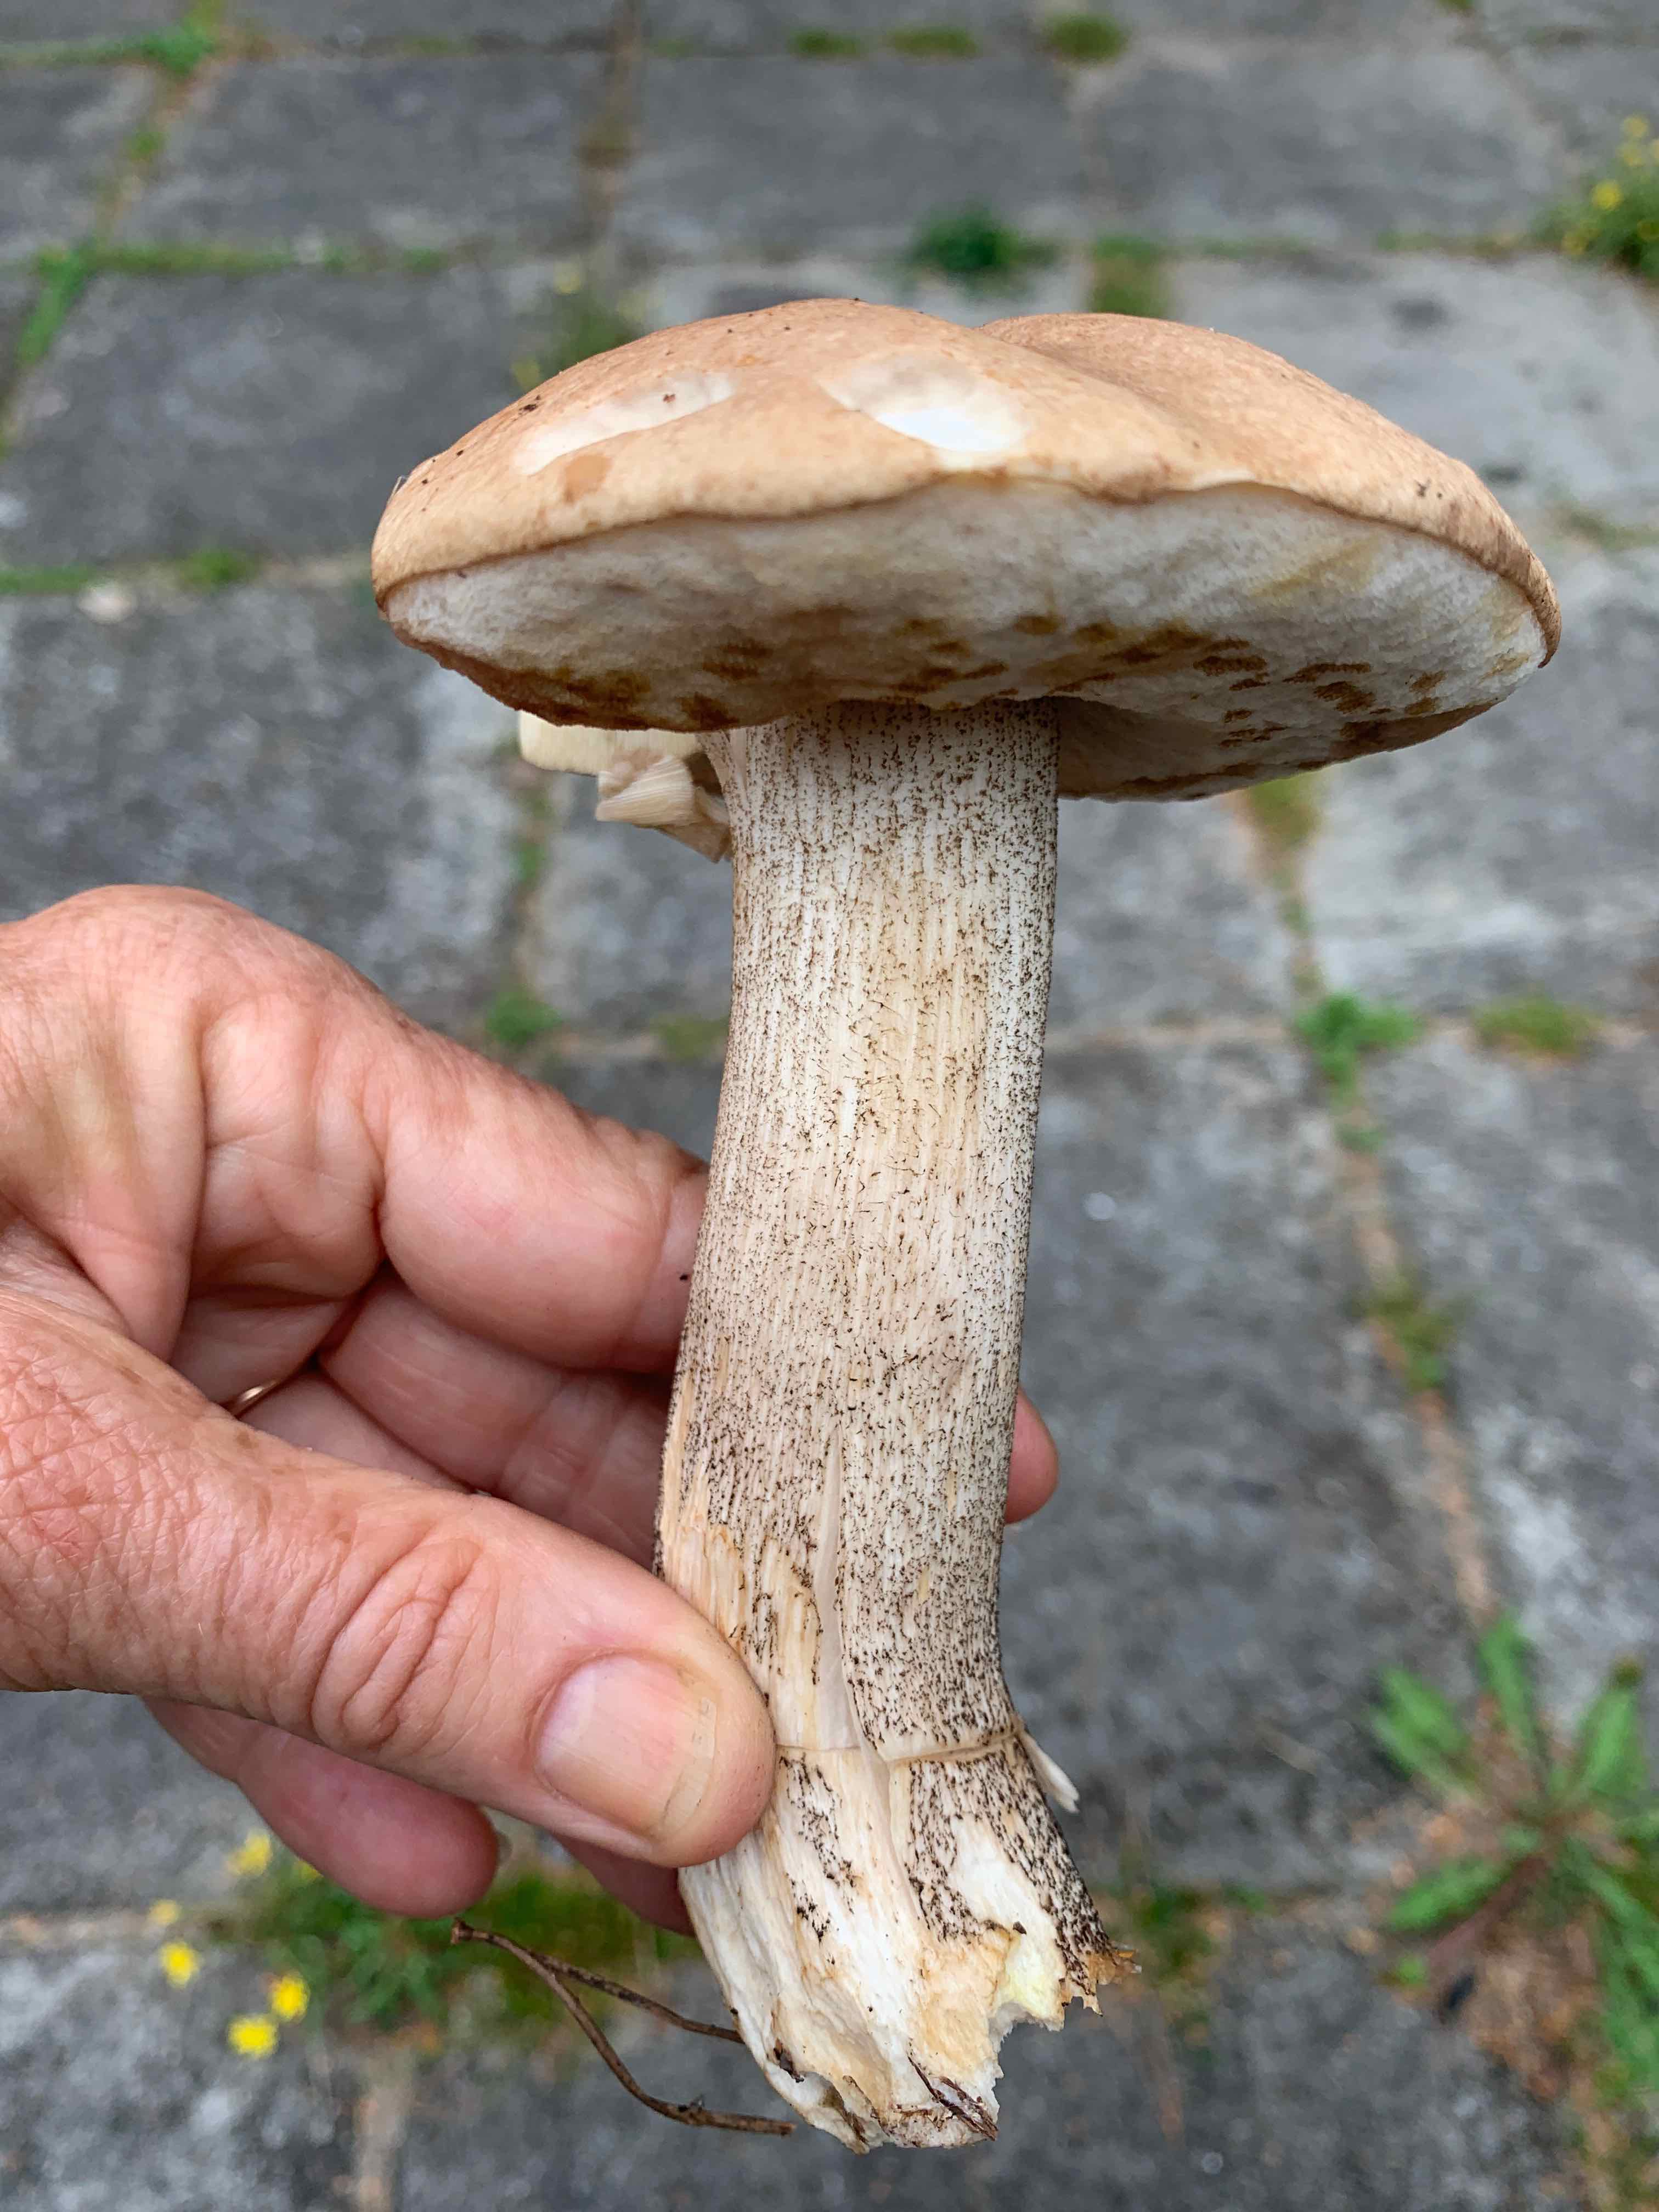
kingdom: Fungi
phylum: Basidiomycota
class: Agaricomycetes
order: Boletales
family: Boletaceae
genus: Leccinum
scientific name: Leccinum
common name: skælrørhat
